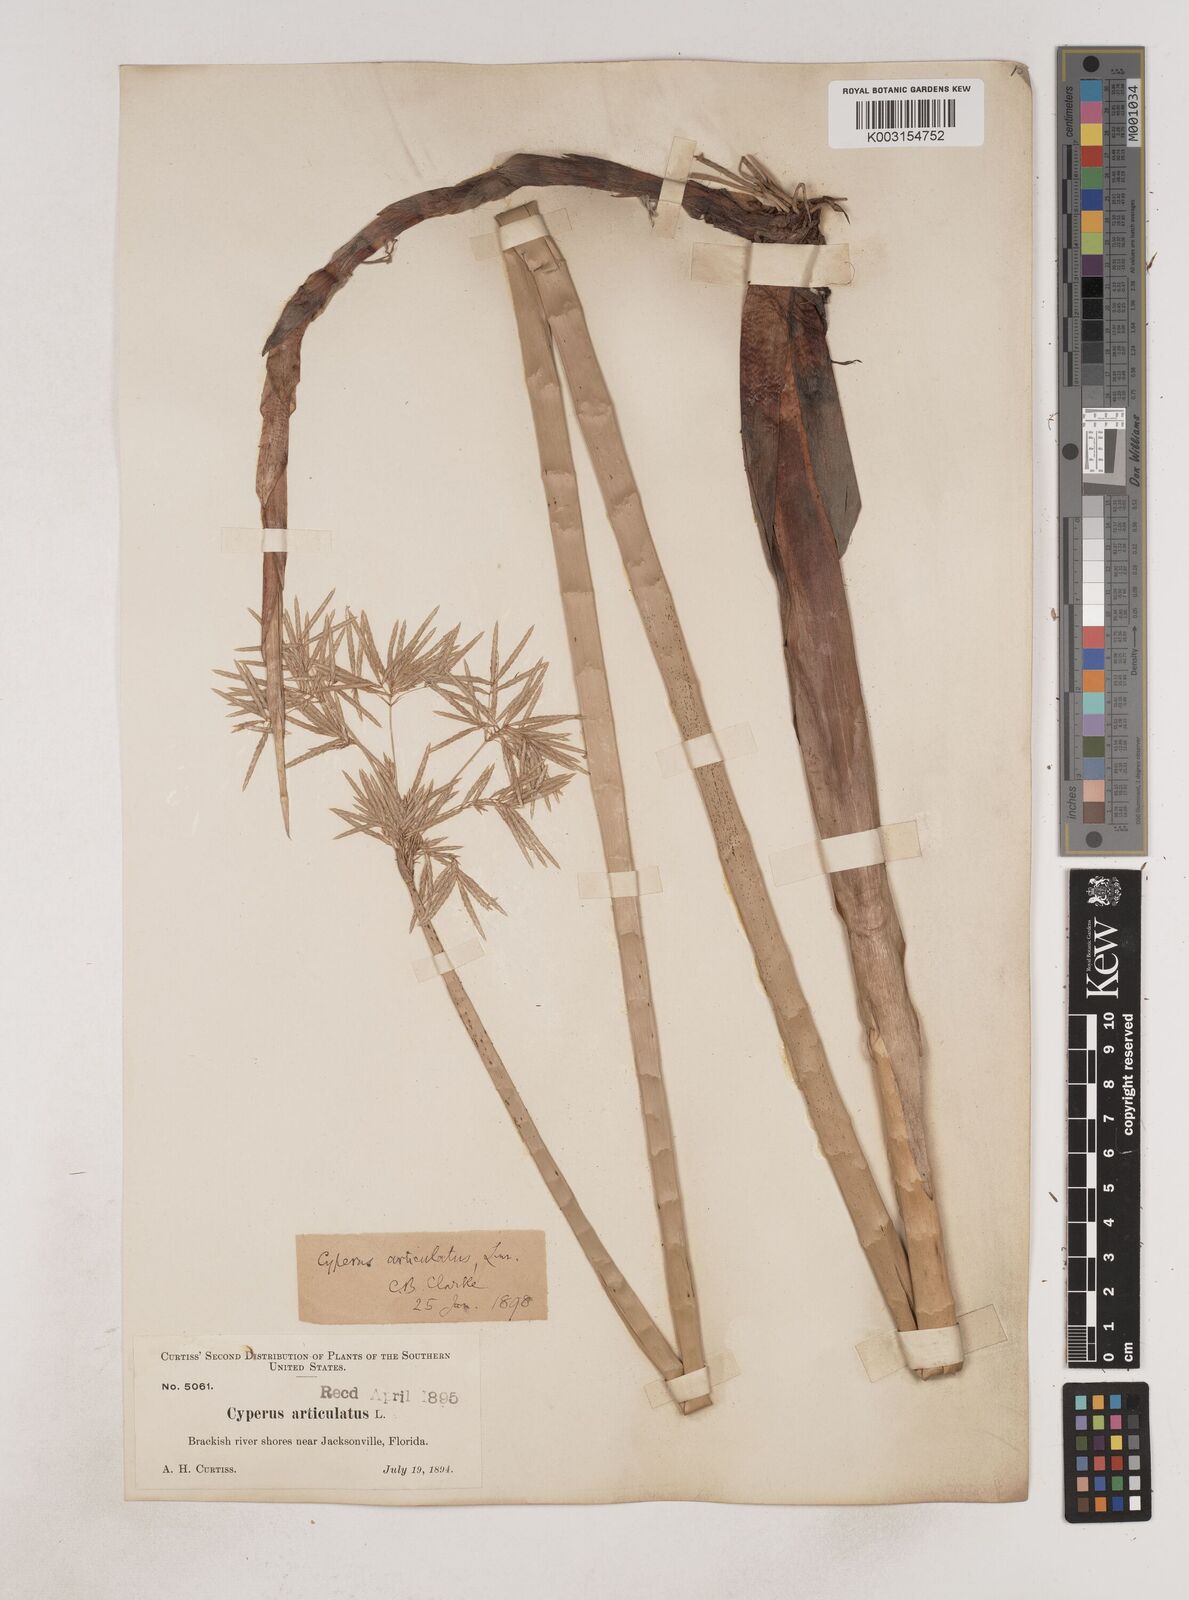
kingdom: Plantae
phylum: Tracheophyta
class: Liliopsida
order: Poales
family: Cyperaceae
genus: Cyperus
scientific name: Cyperus articulatus
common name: Jointed flatsedge
